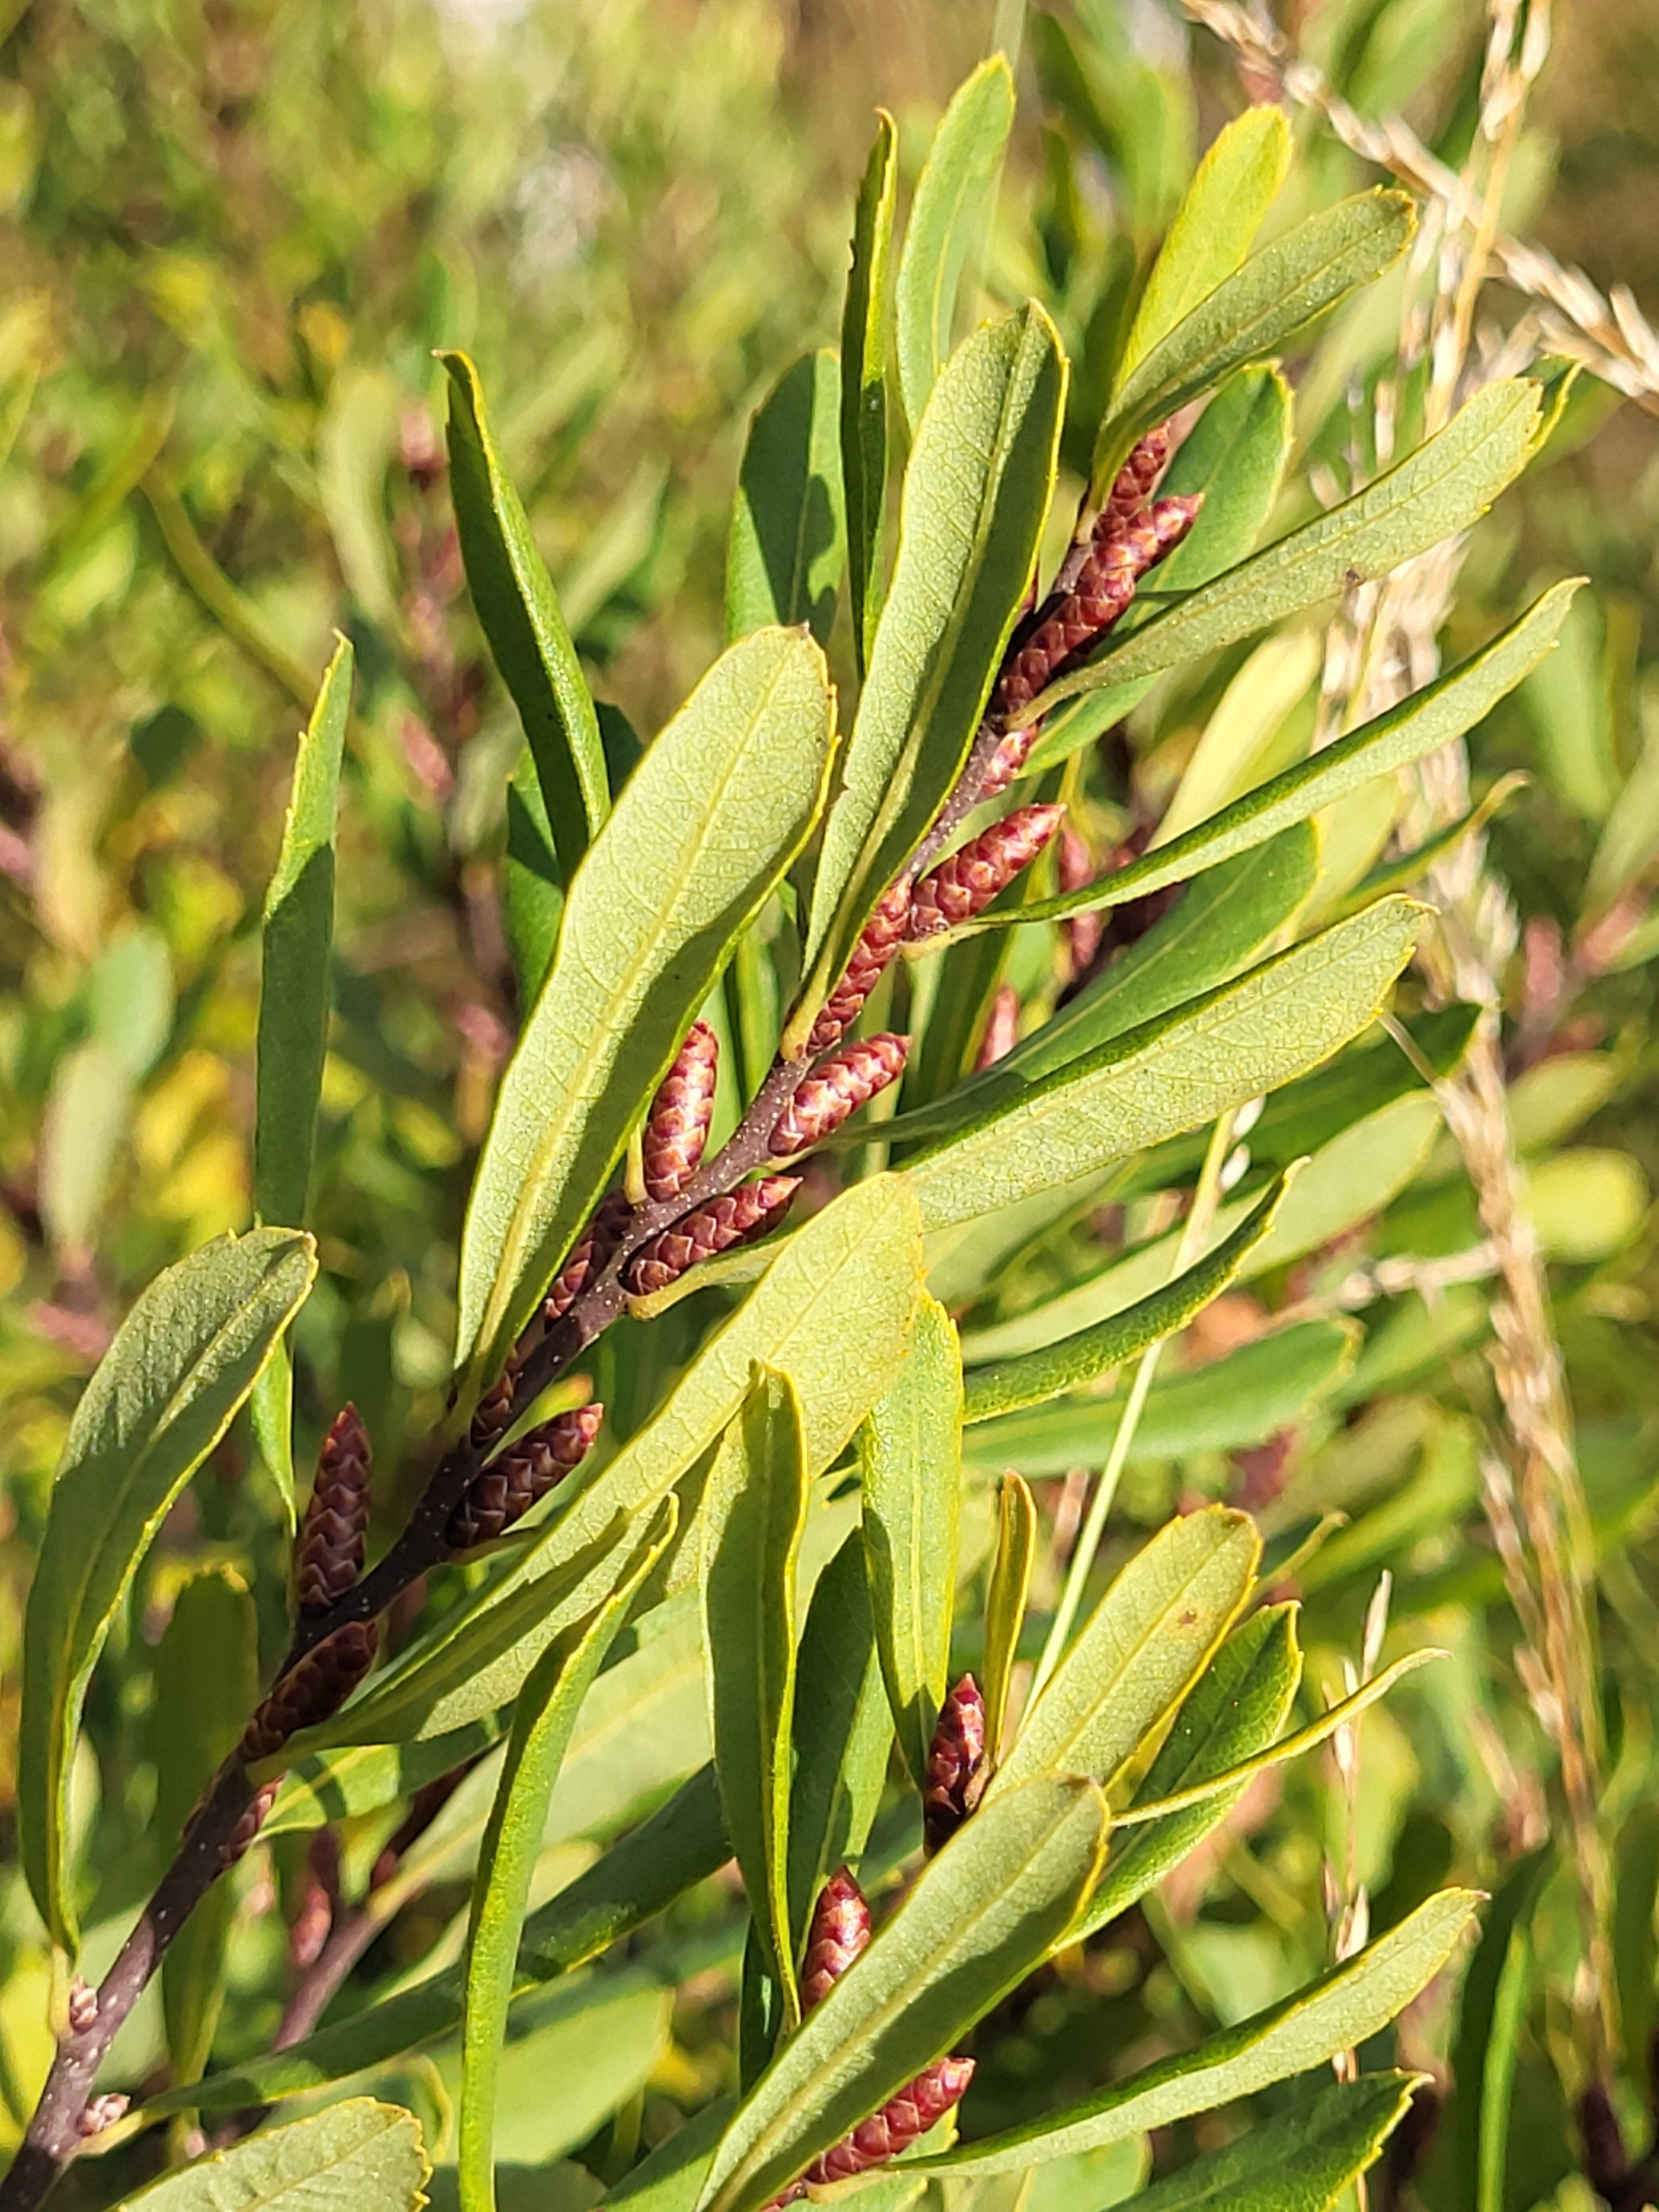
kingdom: Plantae
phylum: Tracheophyta
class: Magnoliopsida
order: Fagales
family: Myricaceae
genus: Myrica
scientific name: Myrica gale
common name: Pors
